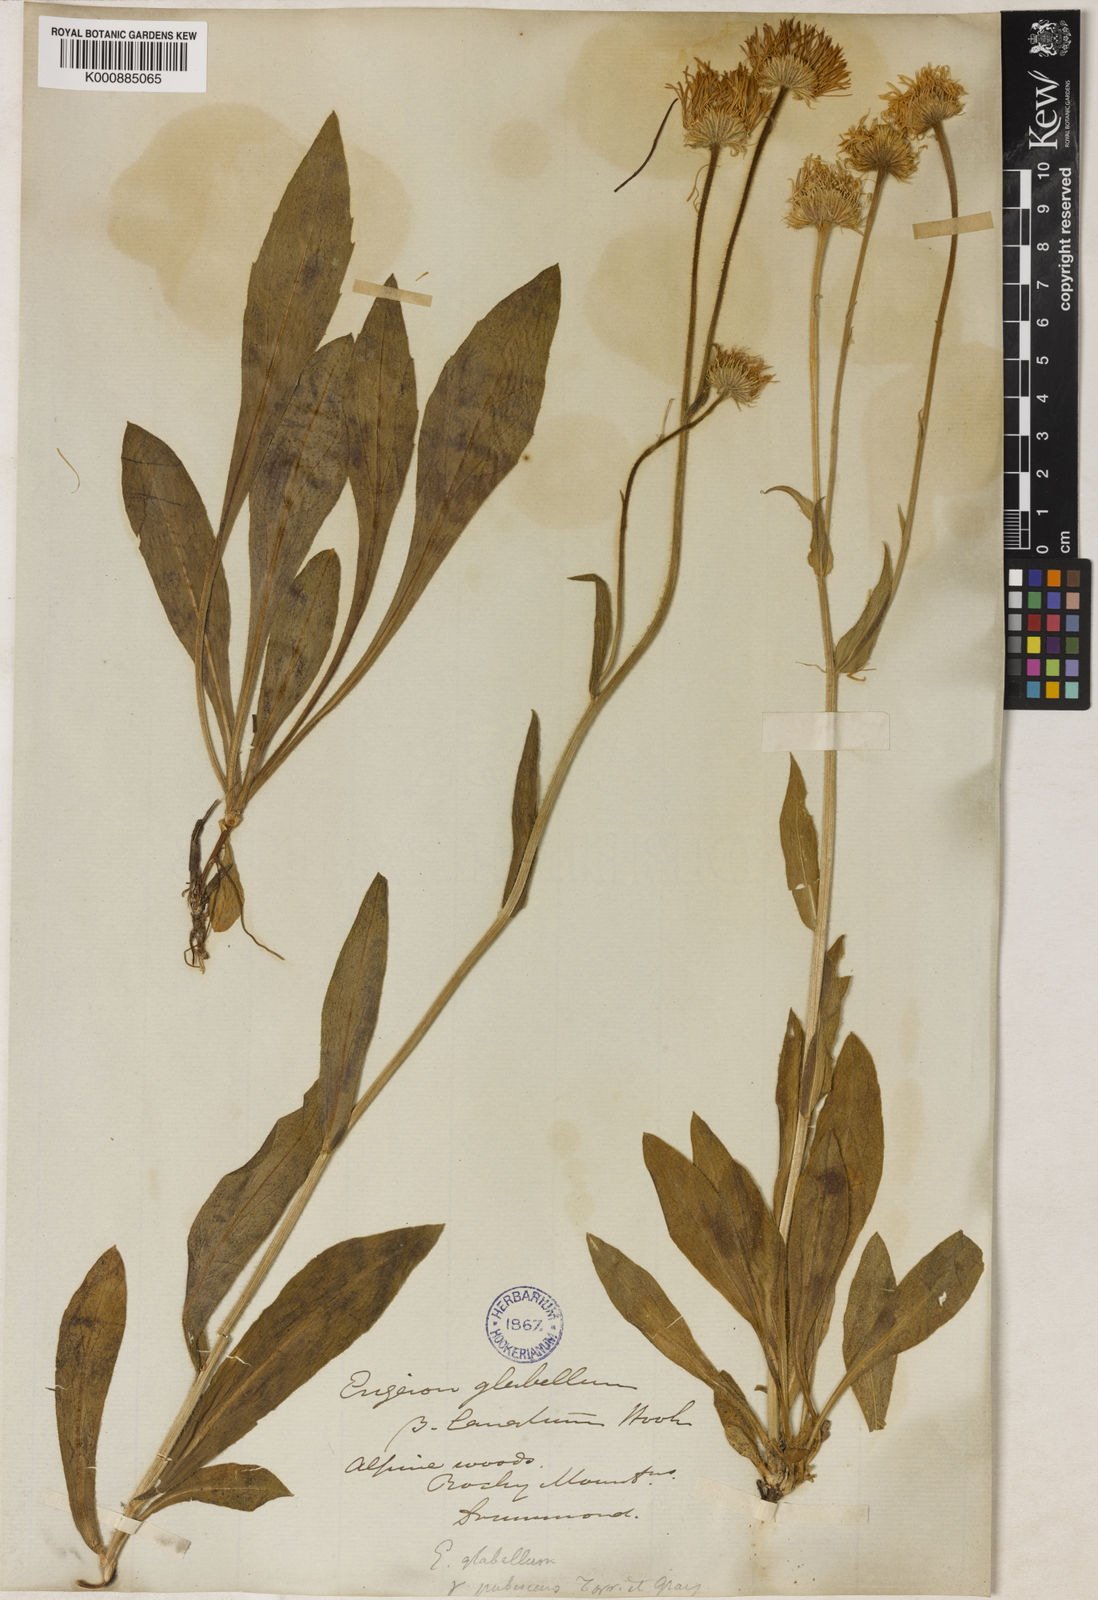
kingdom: Plantae
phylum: Tracheophyta
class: Magnoliopsida
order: Asterales
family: Asteraceae
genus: Erigeron
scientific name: Erigeron glabellus
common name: Smooth fleabane
